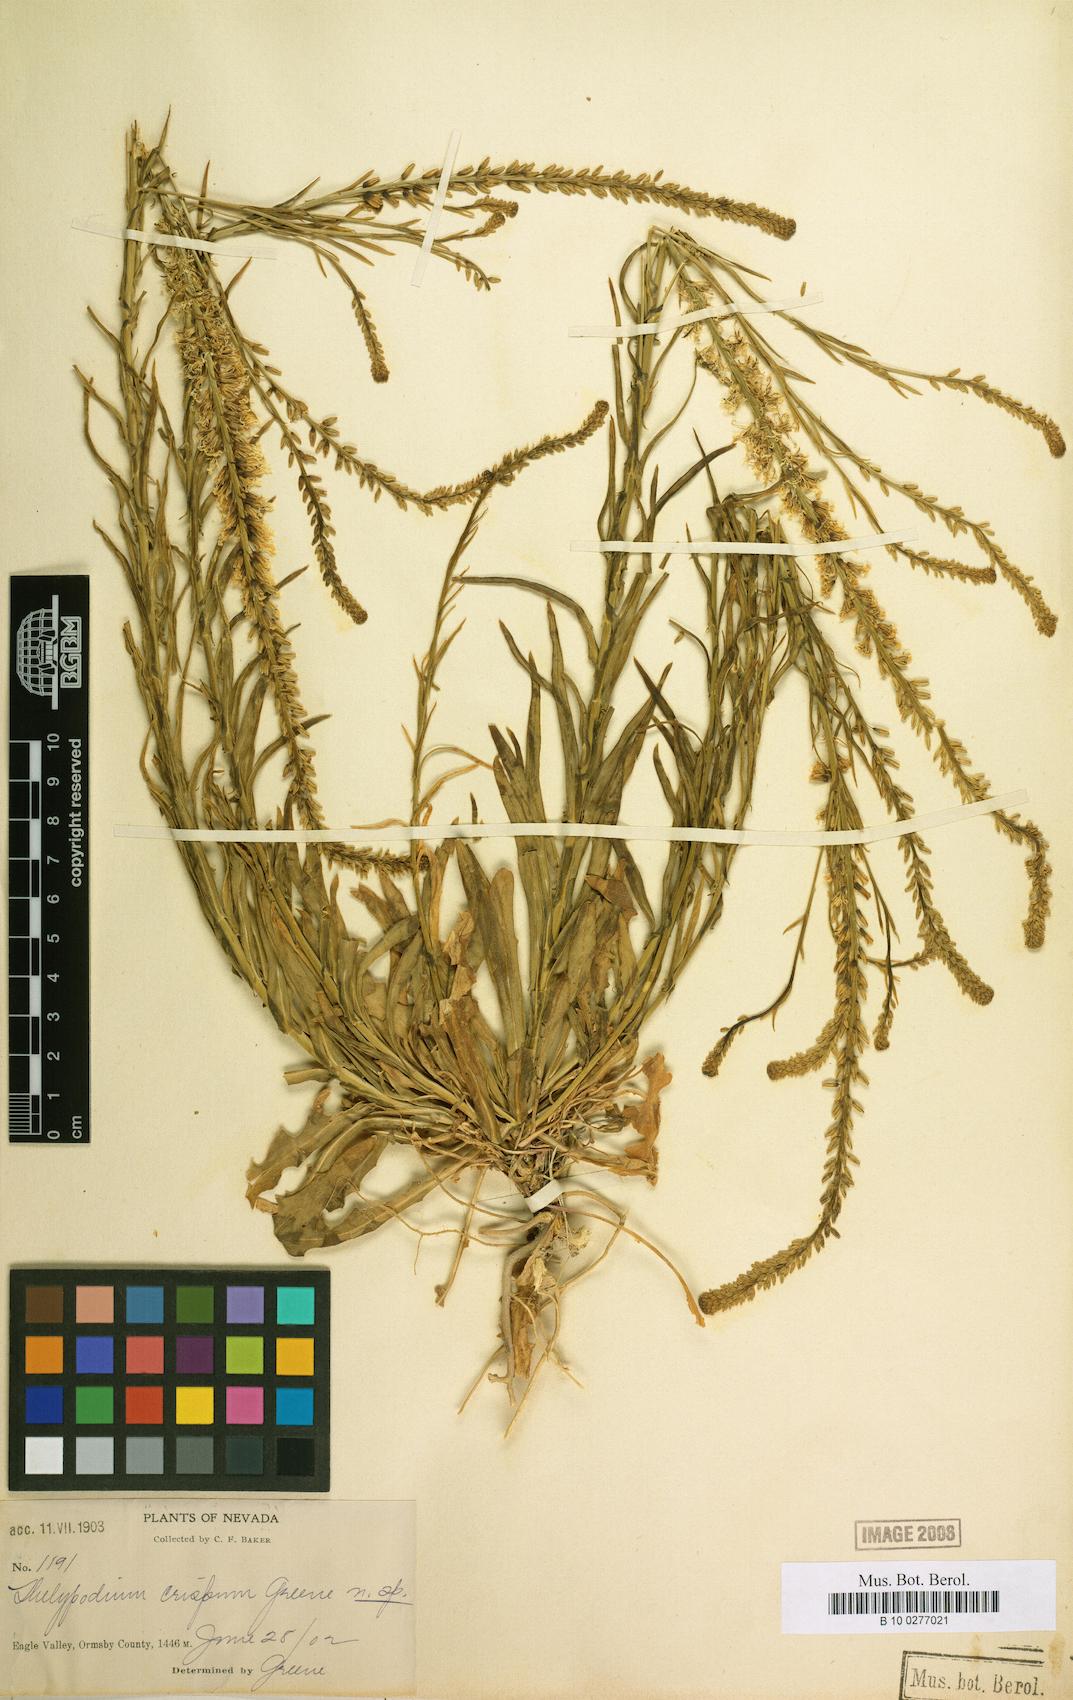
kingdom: Plantae
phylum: Tracheophyta
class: Magnoliopsida
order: Brassicales
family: Brassicaceae
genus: Thelypodium
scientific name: Thelypodium crispum
